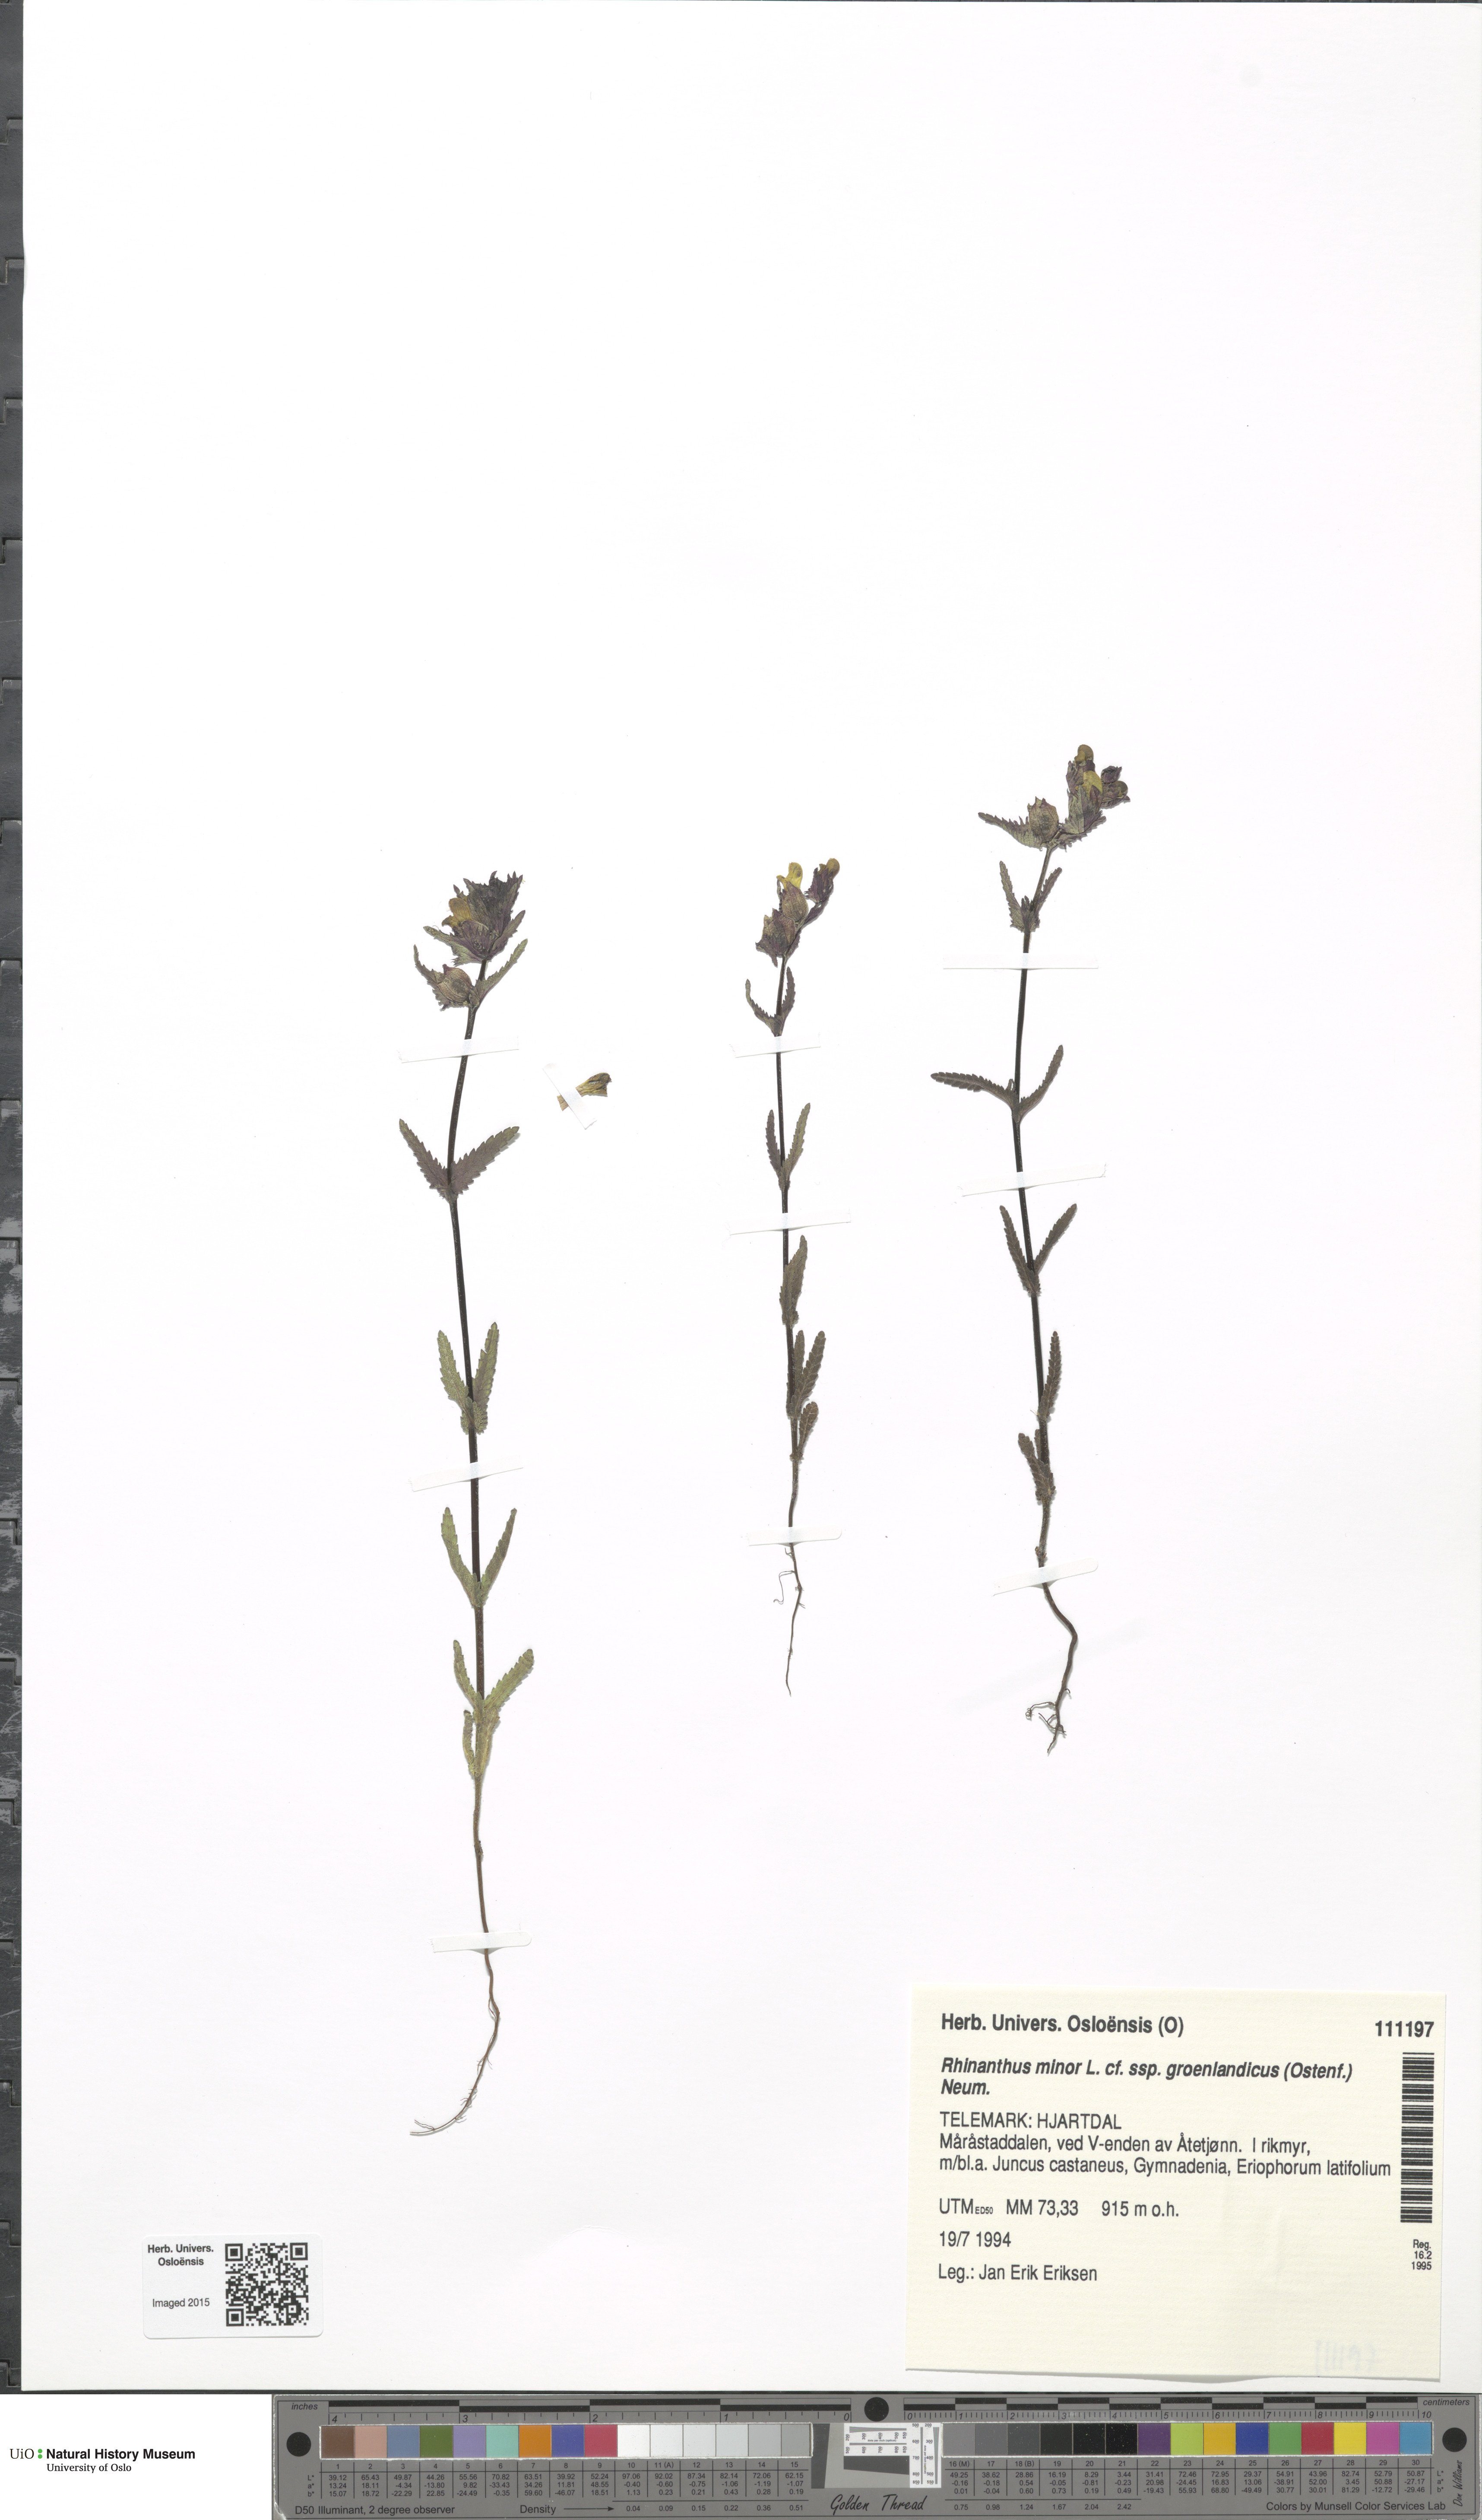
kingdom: Plantae
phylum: Tracheophyta
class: Magnoliopsida
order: Lamiales
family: Orobanchaceae
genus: Rhinanthus
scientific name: Rhinanthus groenlandicus
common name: Little yellow rattle
